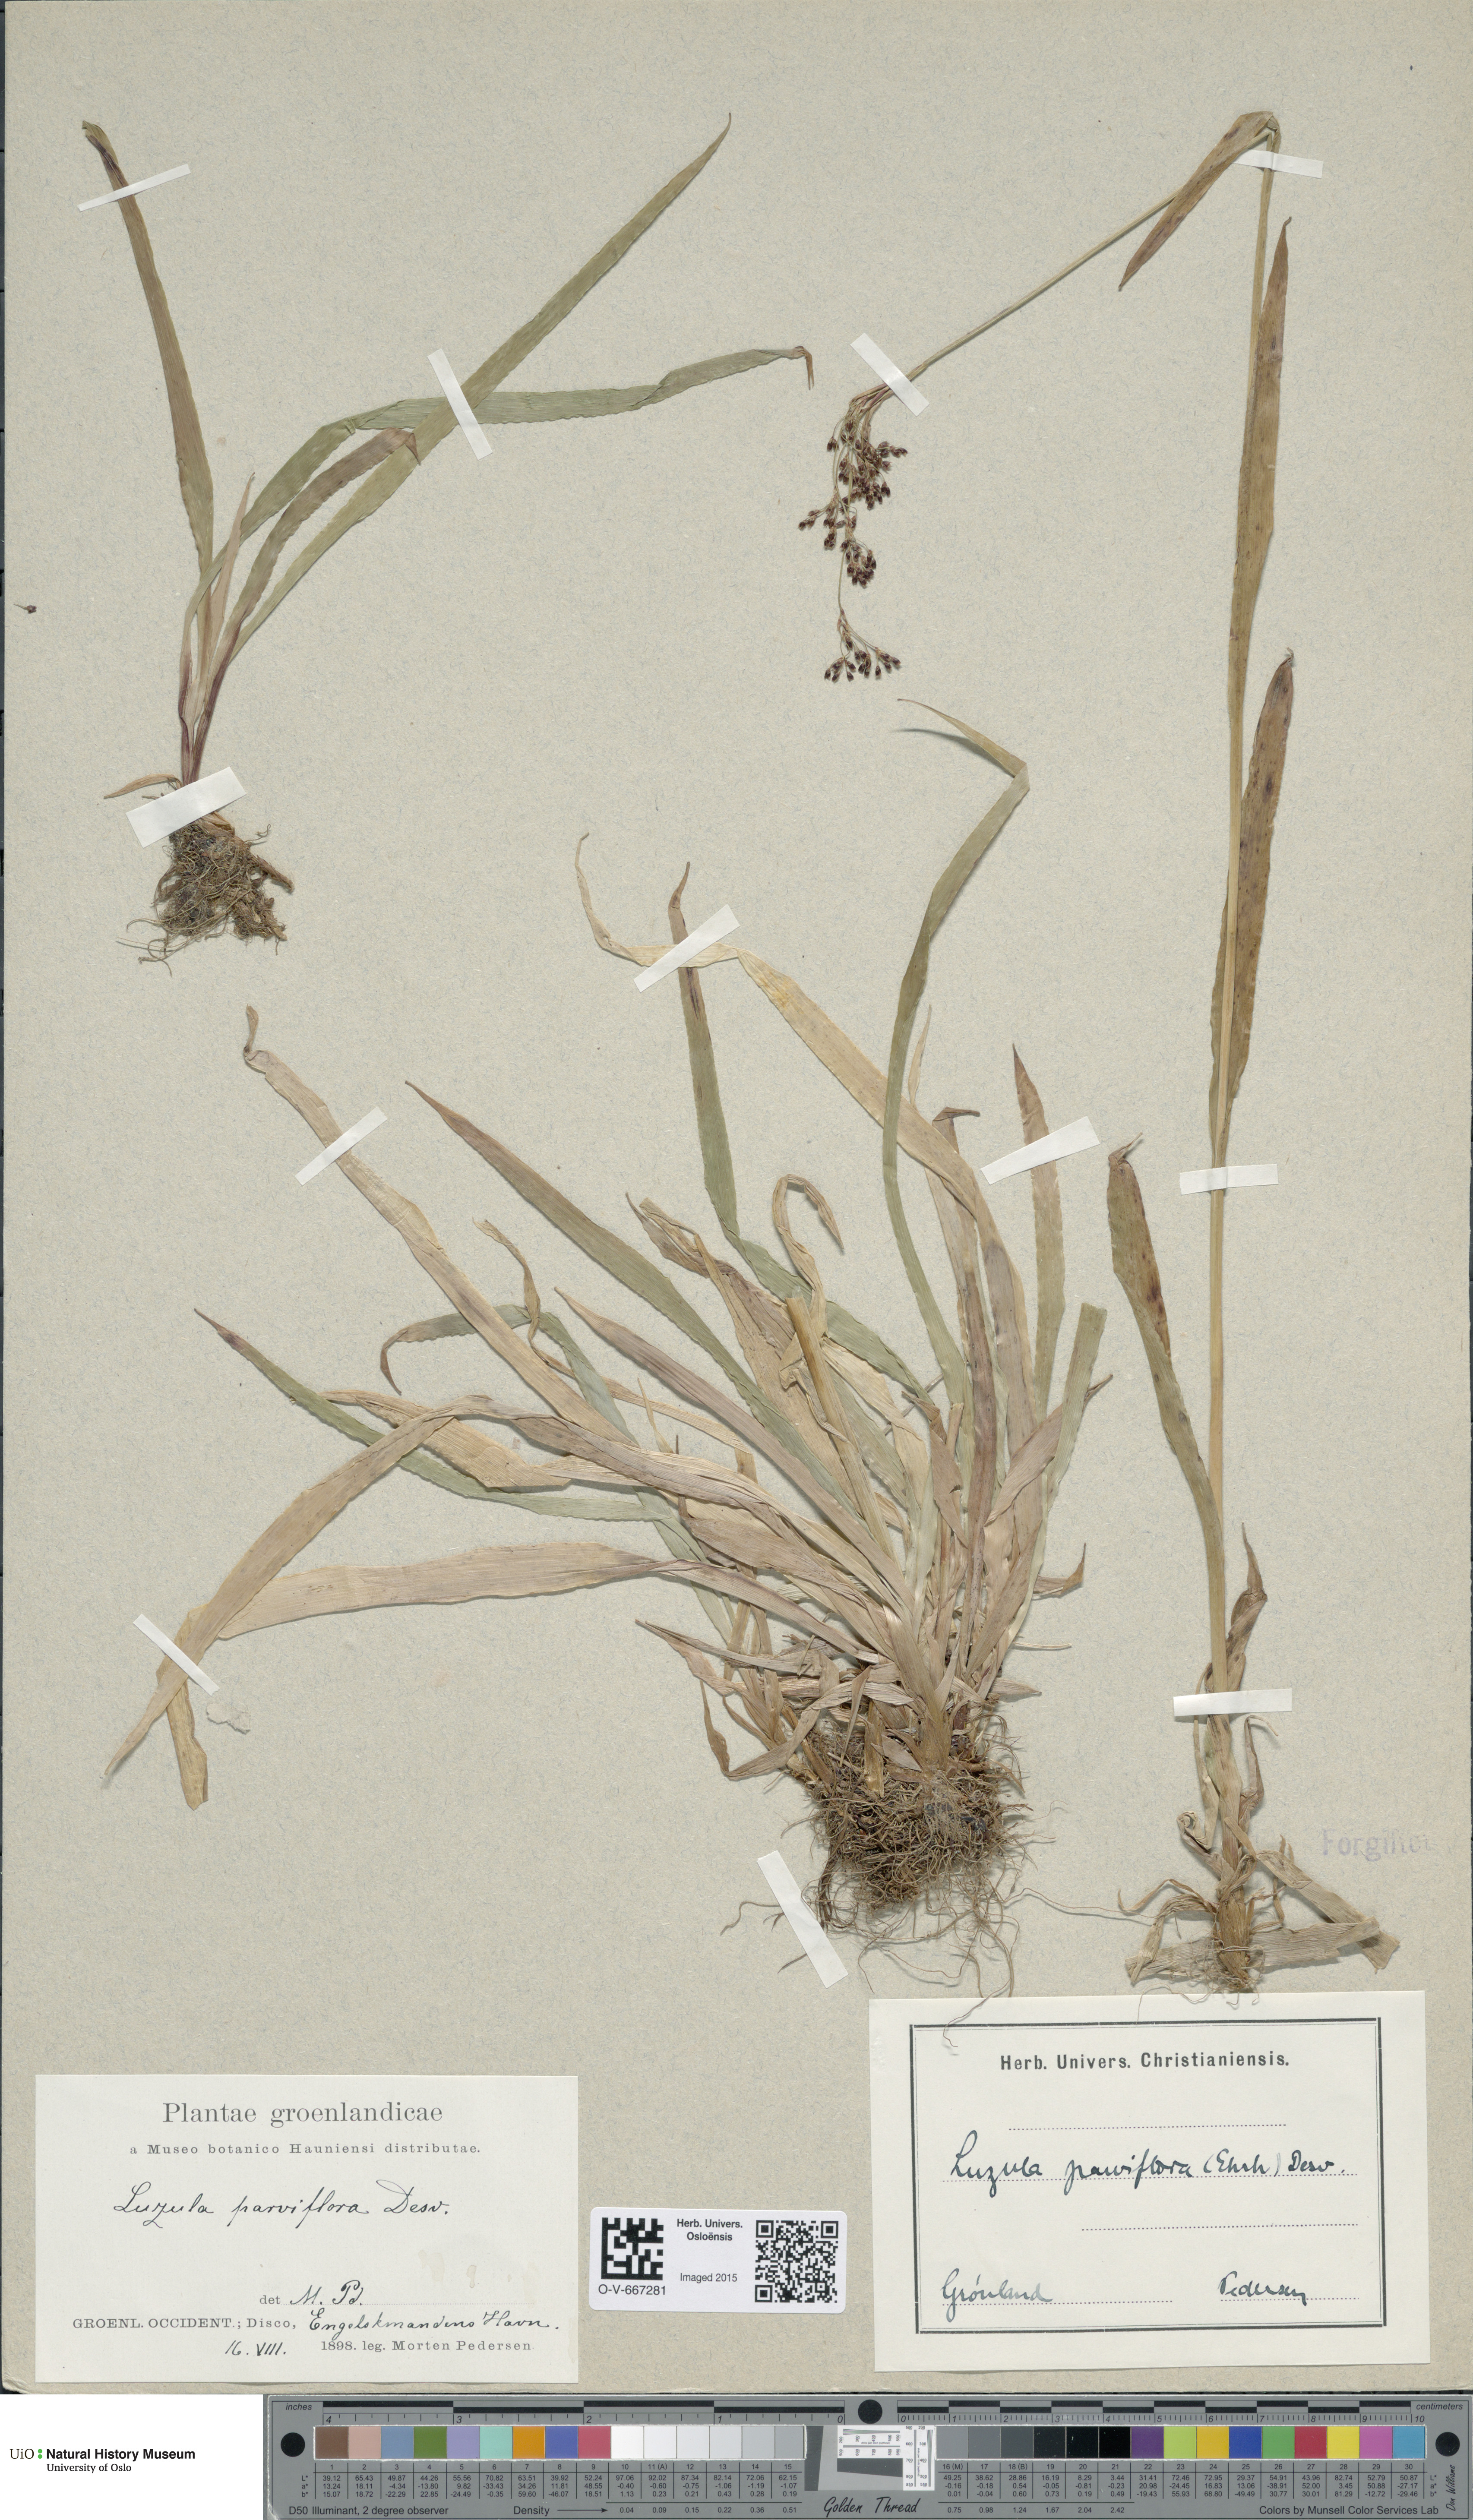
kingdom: Plantae
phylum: Tracheophyta
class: Liliopsida
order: Poales
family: Juncaceae
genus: Luzula
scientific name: Luzula parviflora
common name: Millet woodrush
